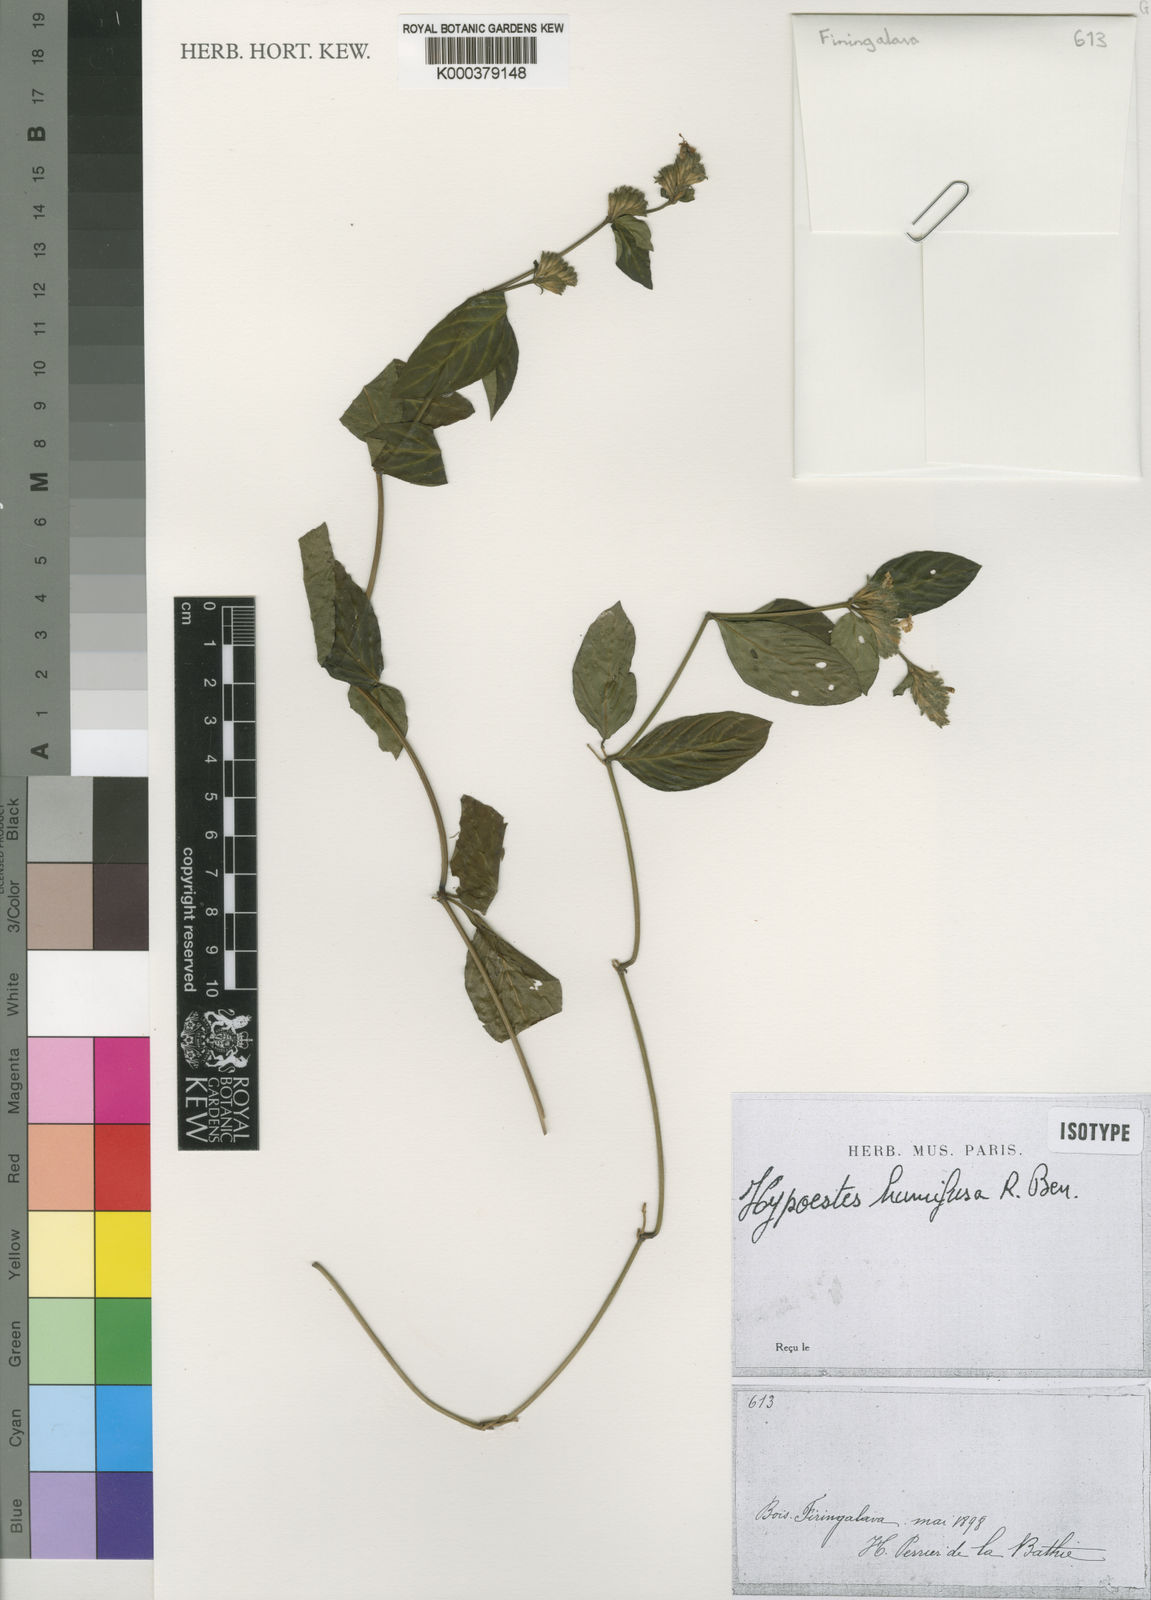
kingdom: Plantae
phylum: Tracheophyta
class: Magnoliopsida
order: Lamiales
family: Acanthaceae
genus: Hypoestes
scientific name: Hypoestes humifusa
